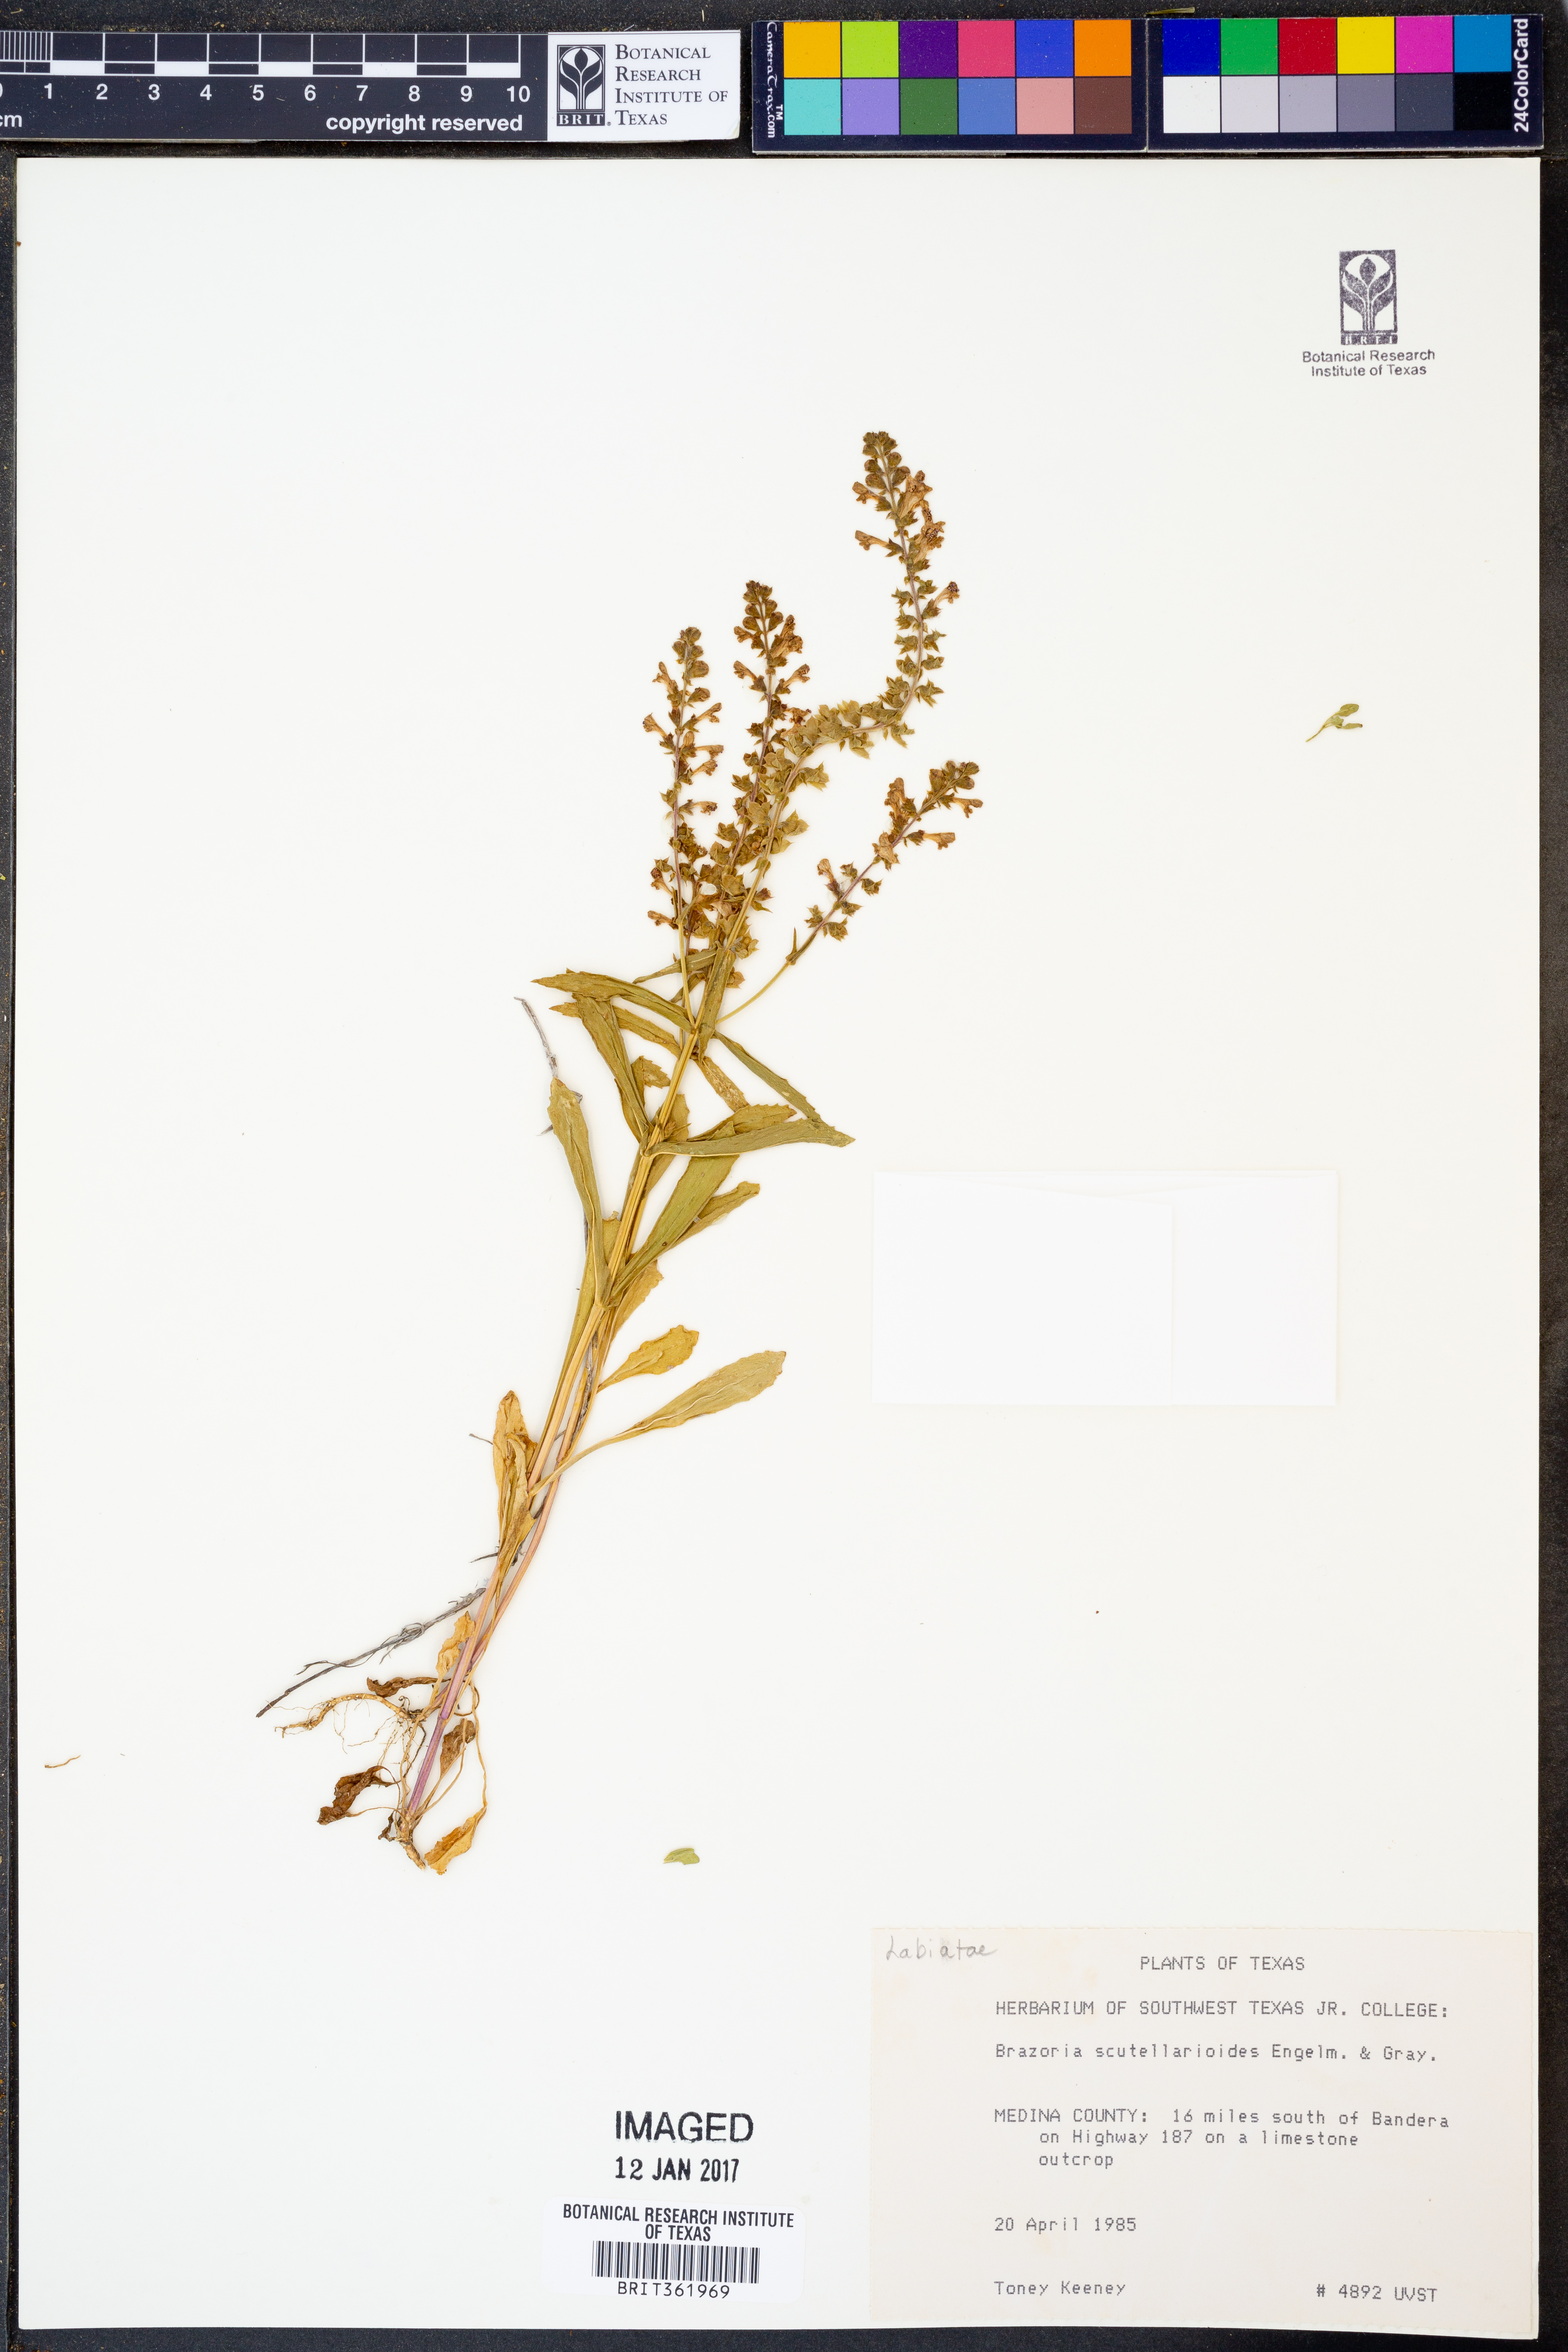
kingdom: Plantae
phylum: Tracheophyta
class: Magnoliopsida
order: Lamiales
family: Lamiaceae
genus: Warnockia
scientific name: Warnockia scutellarioides
